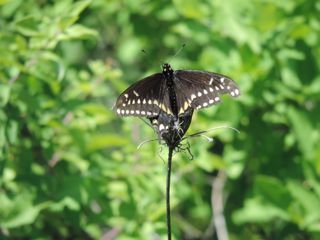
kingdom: Animalia
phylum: Arthropoda
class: Insecta
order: Lepidoptera
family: Papilionidae
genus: Papilio
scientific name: Papilio polyxenes
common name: Black Swallowtail
